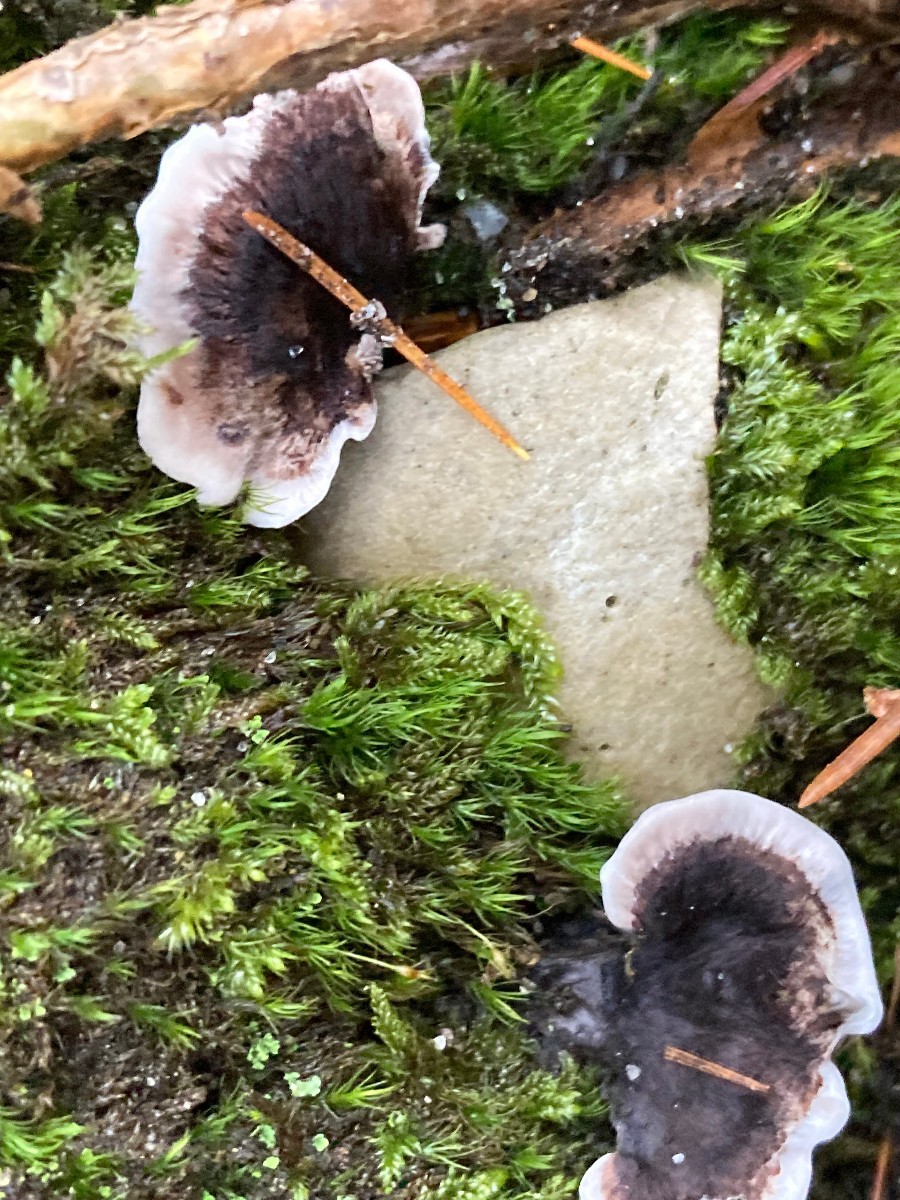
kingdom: Fungi
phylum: Basidiomycota
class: Agaricomycetes
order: Thelephorales
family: Thelephoraceae
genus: Phellodon
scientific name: Phellodon tomentosus
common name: vellugtende duftpigsvamp
